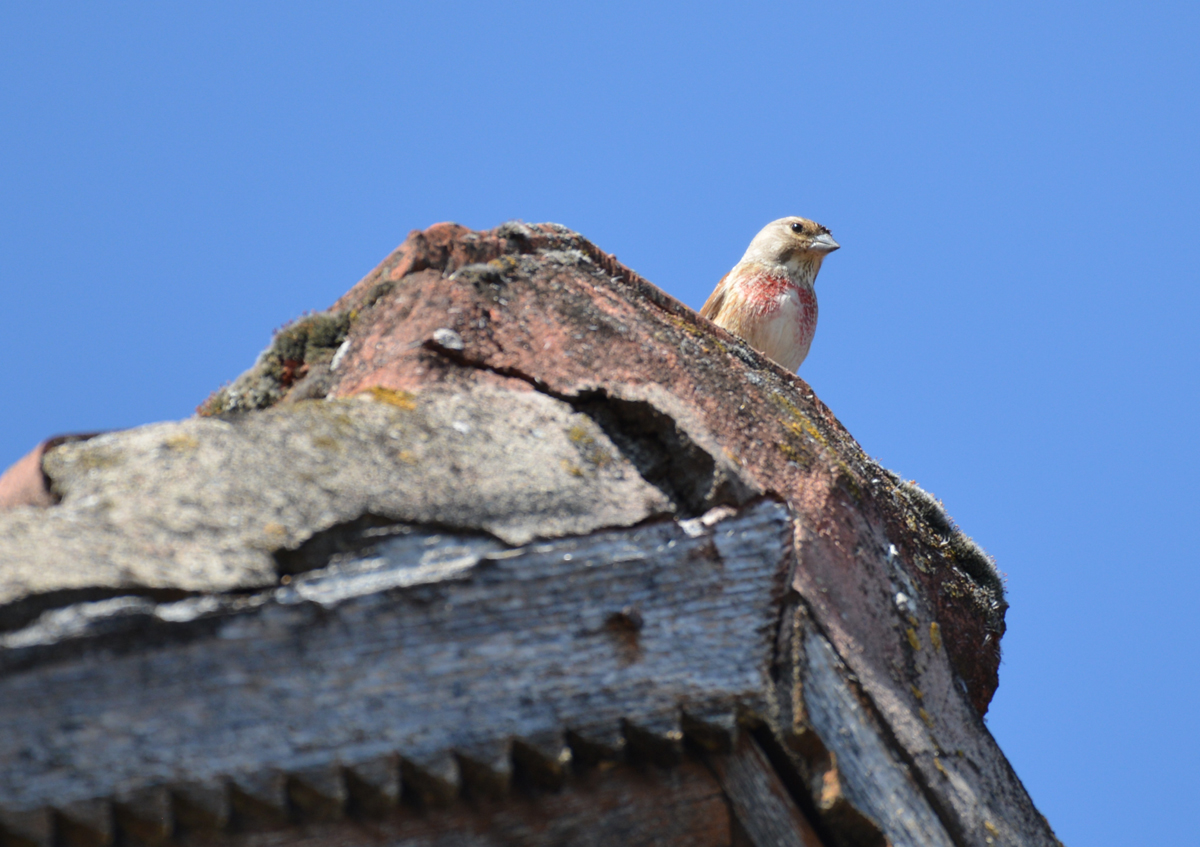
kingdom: Animalia
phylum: Chordata
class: Aves
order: Passeriformes
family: Fringillidae
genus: Linaria
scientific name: Linaria cannabina
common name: Common linnet
